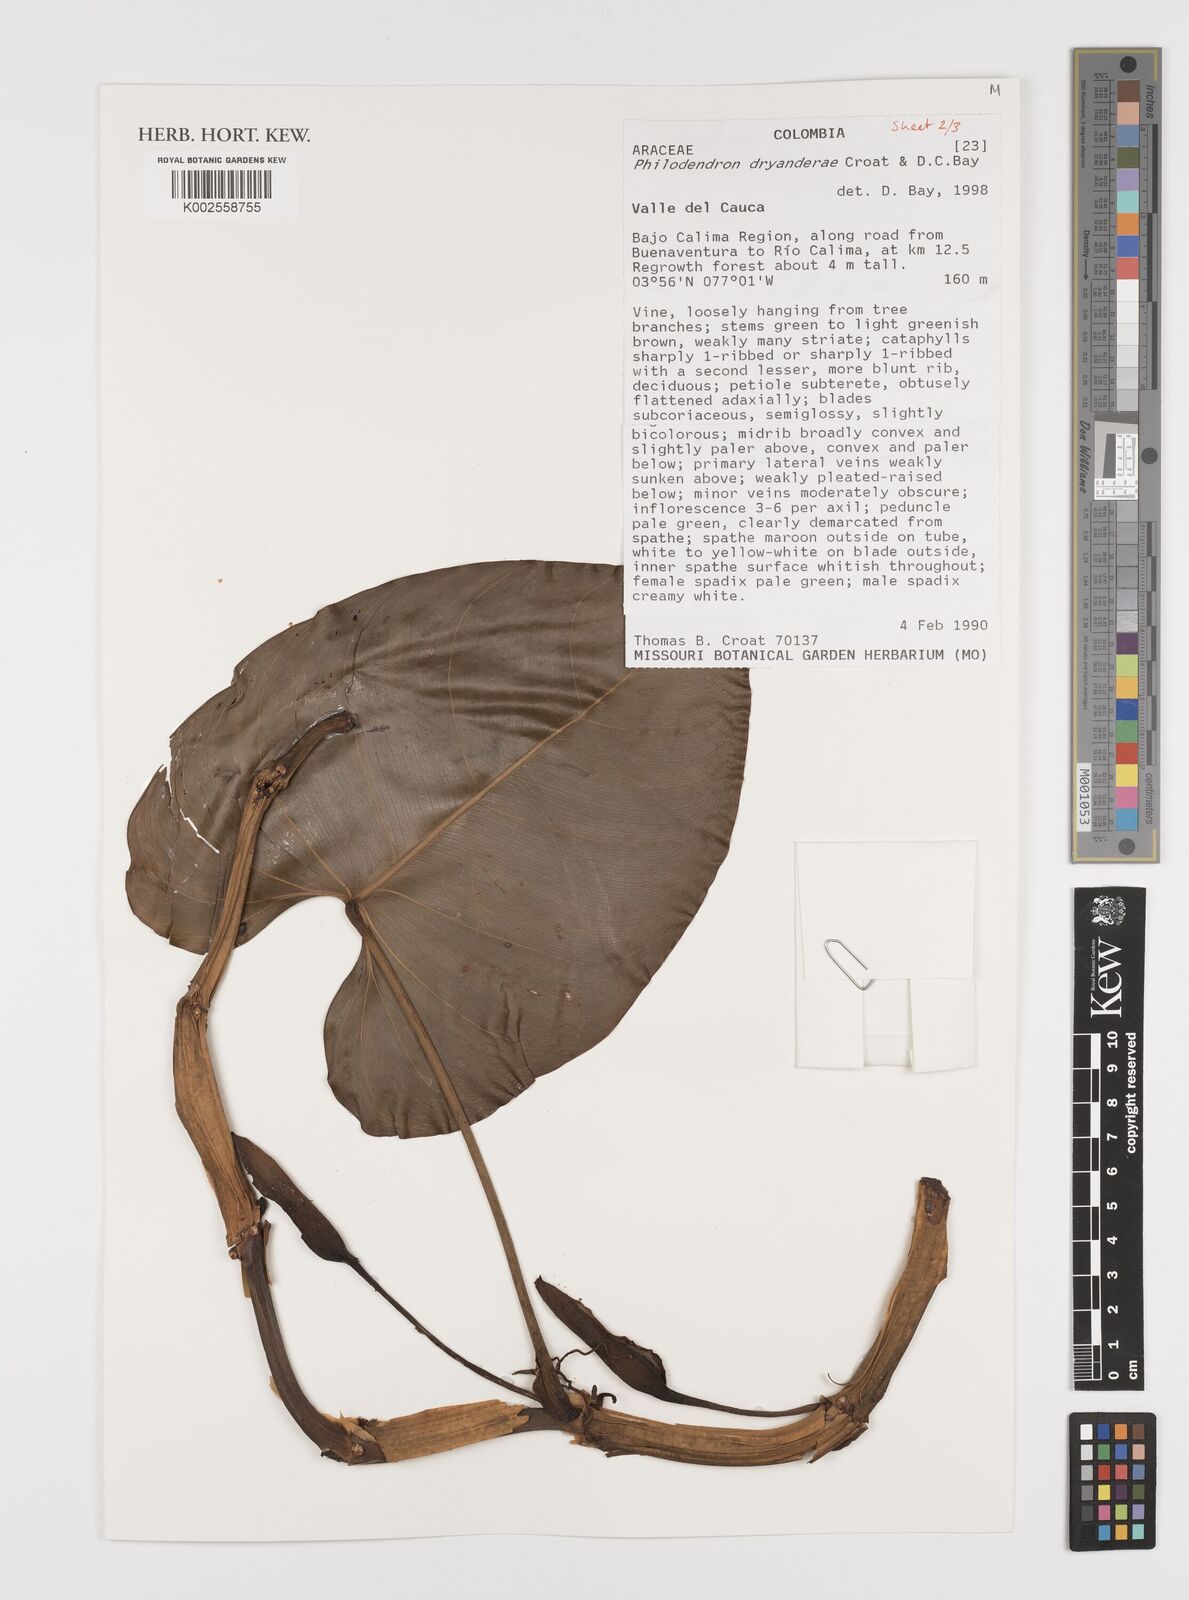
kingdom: Plantae
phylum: Tracheophyta
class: Liliopsida
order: Alismatales
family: Araceae
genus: Philodendron
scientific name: Philodendron dryanderae
